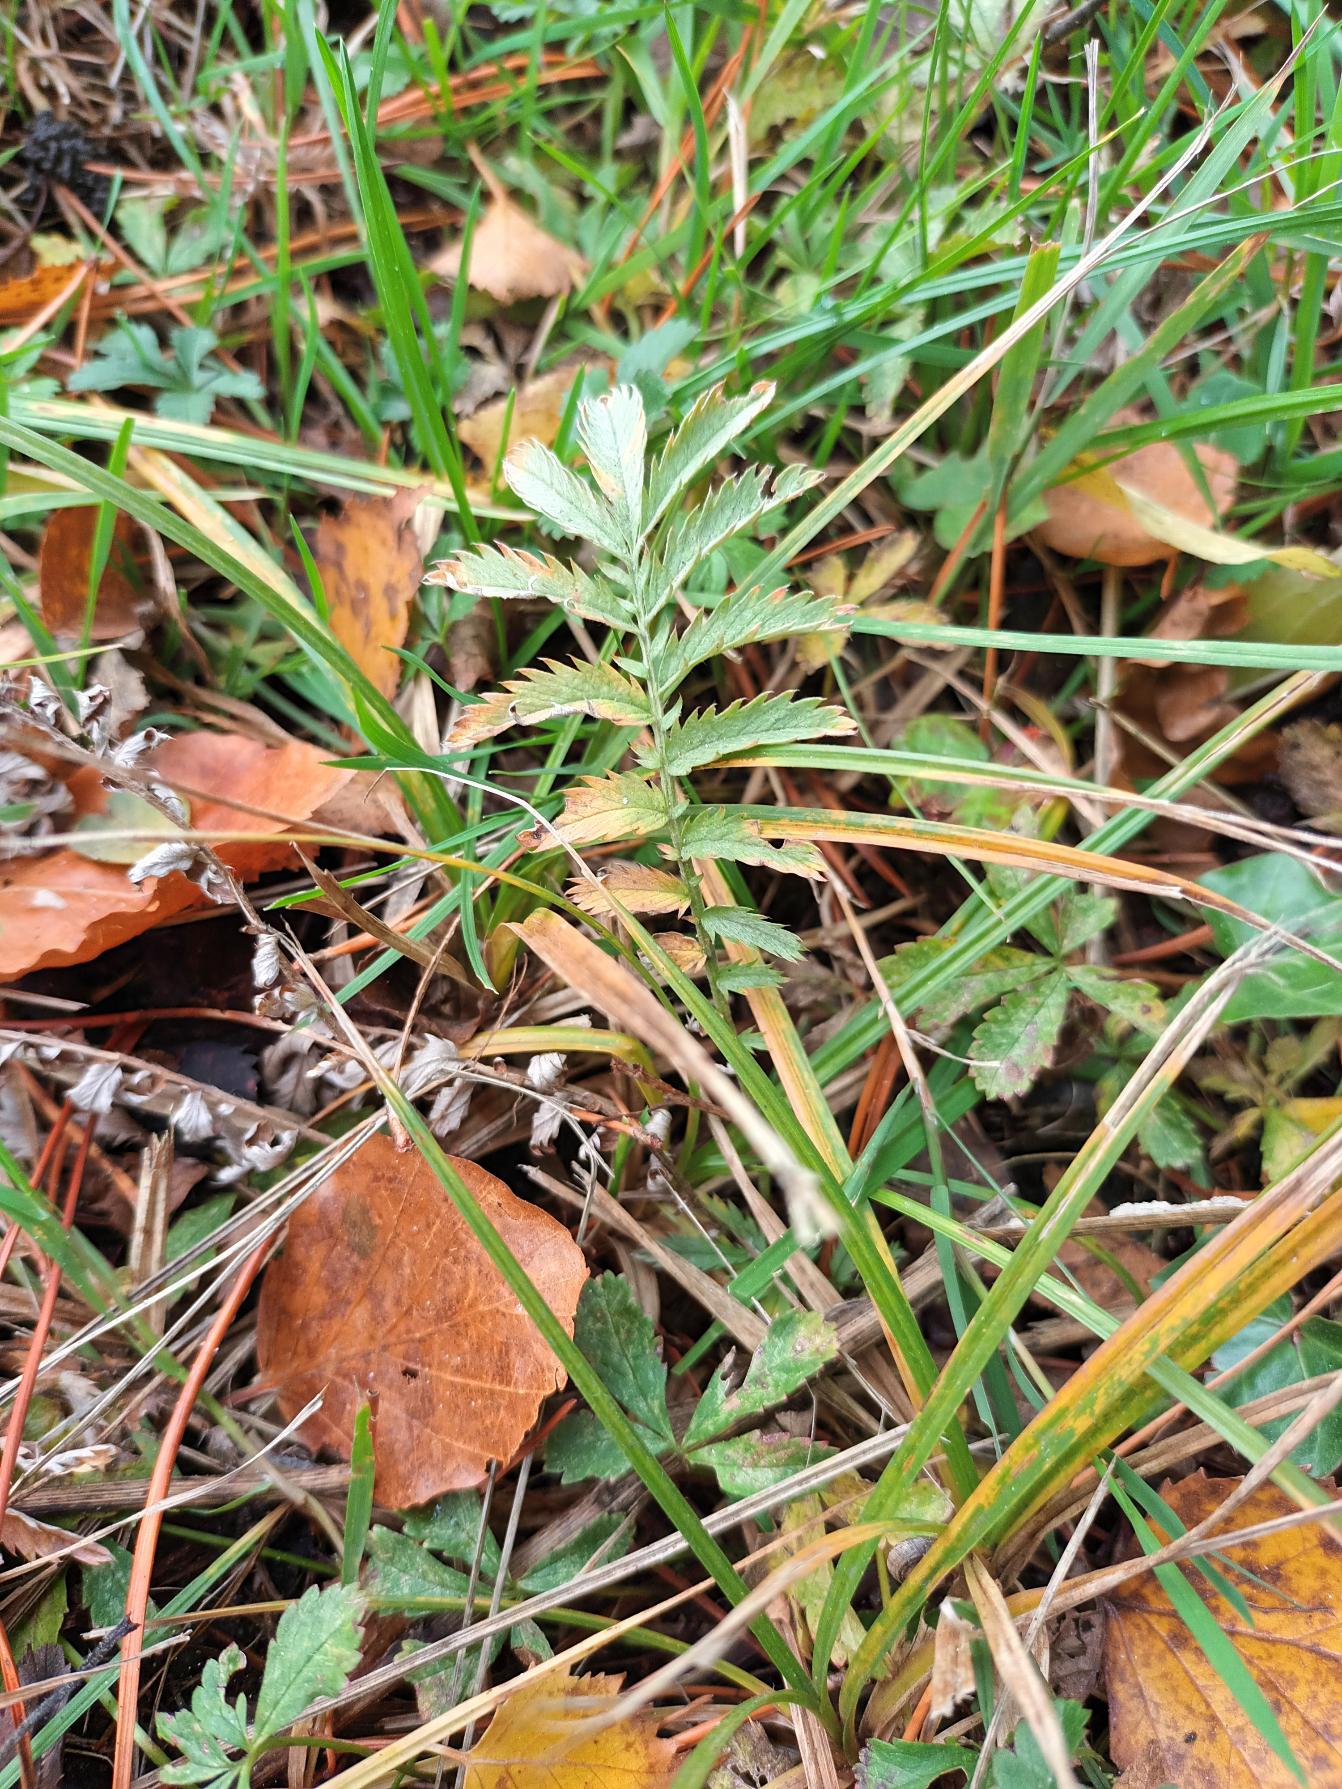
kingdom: Plantae
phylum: Tracheophyta
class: Magnoliopsida
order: Rosales
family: Rosaceae
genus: Argentina
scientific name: Argentina anserina
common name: Gåsepotentil
